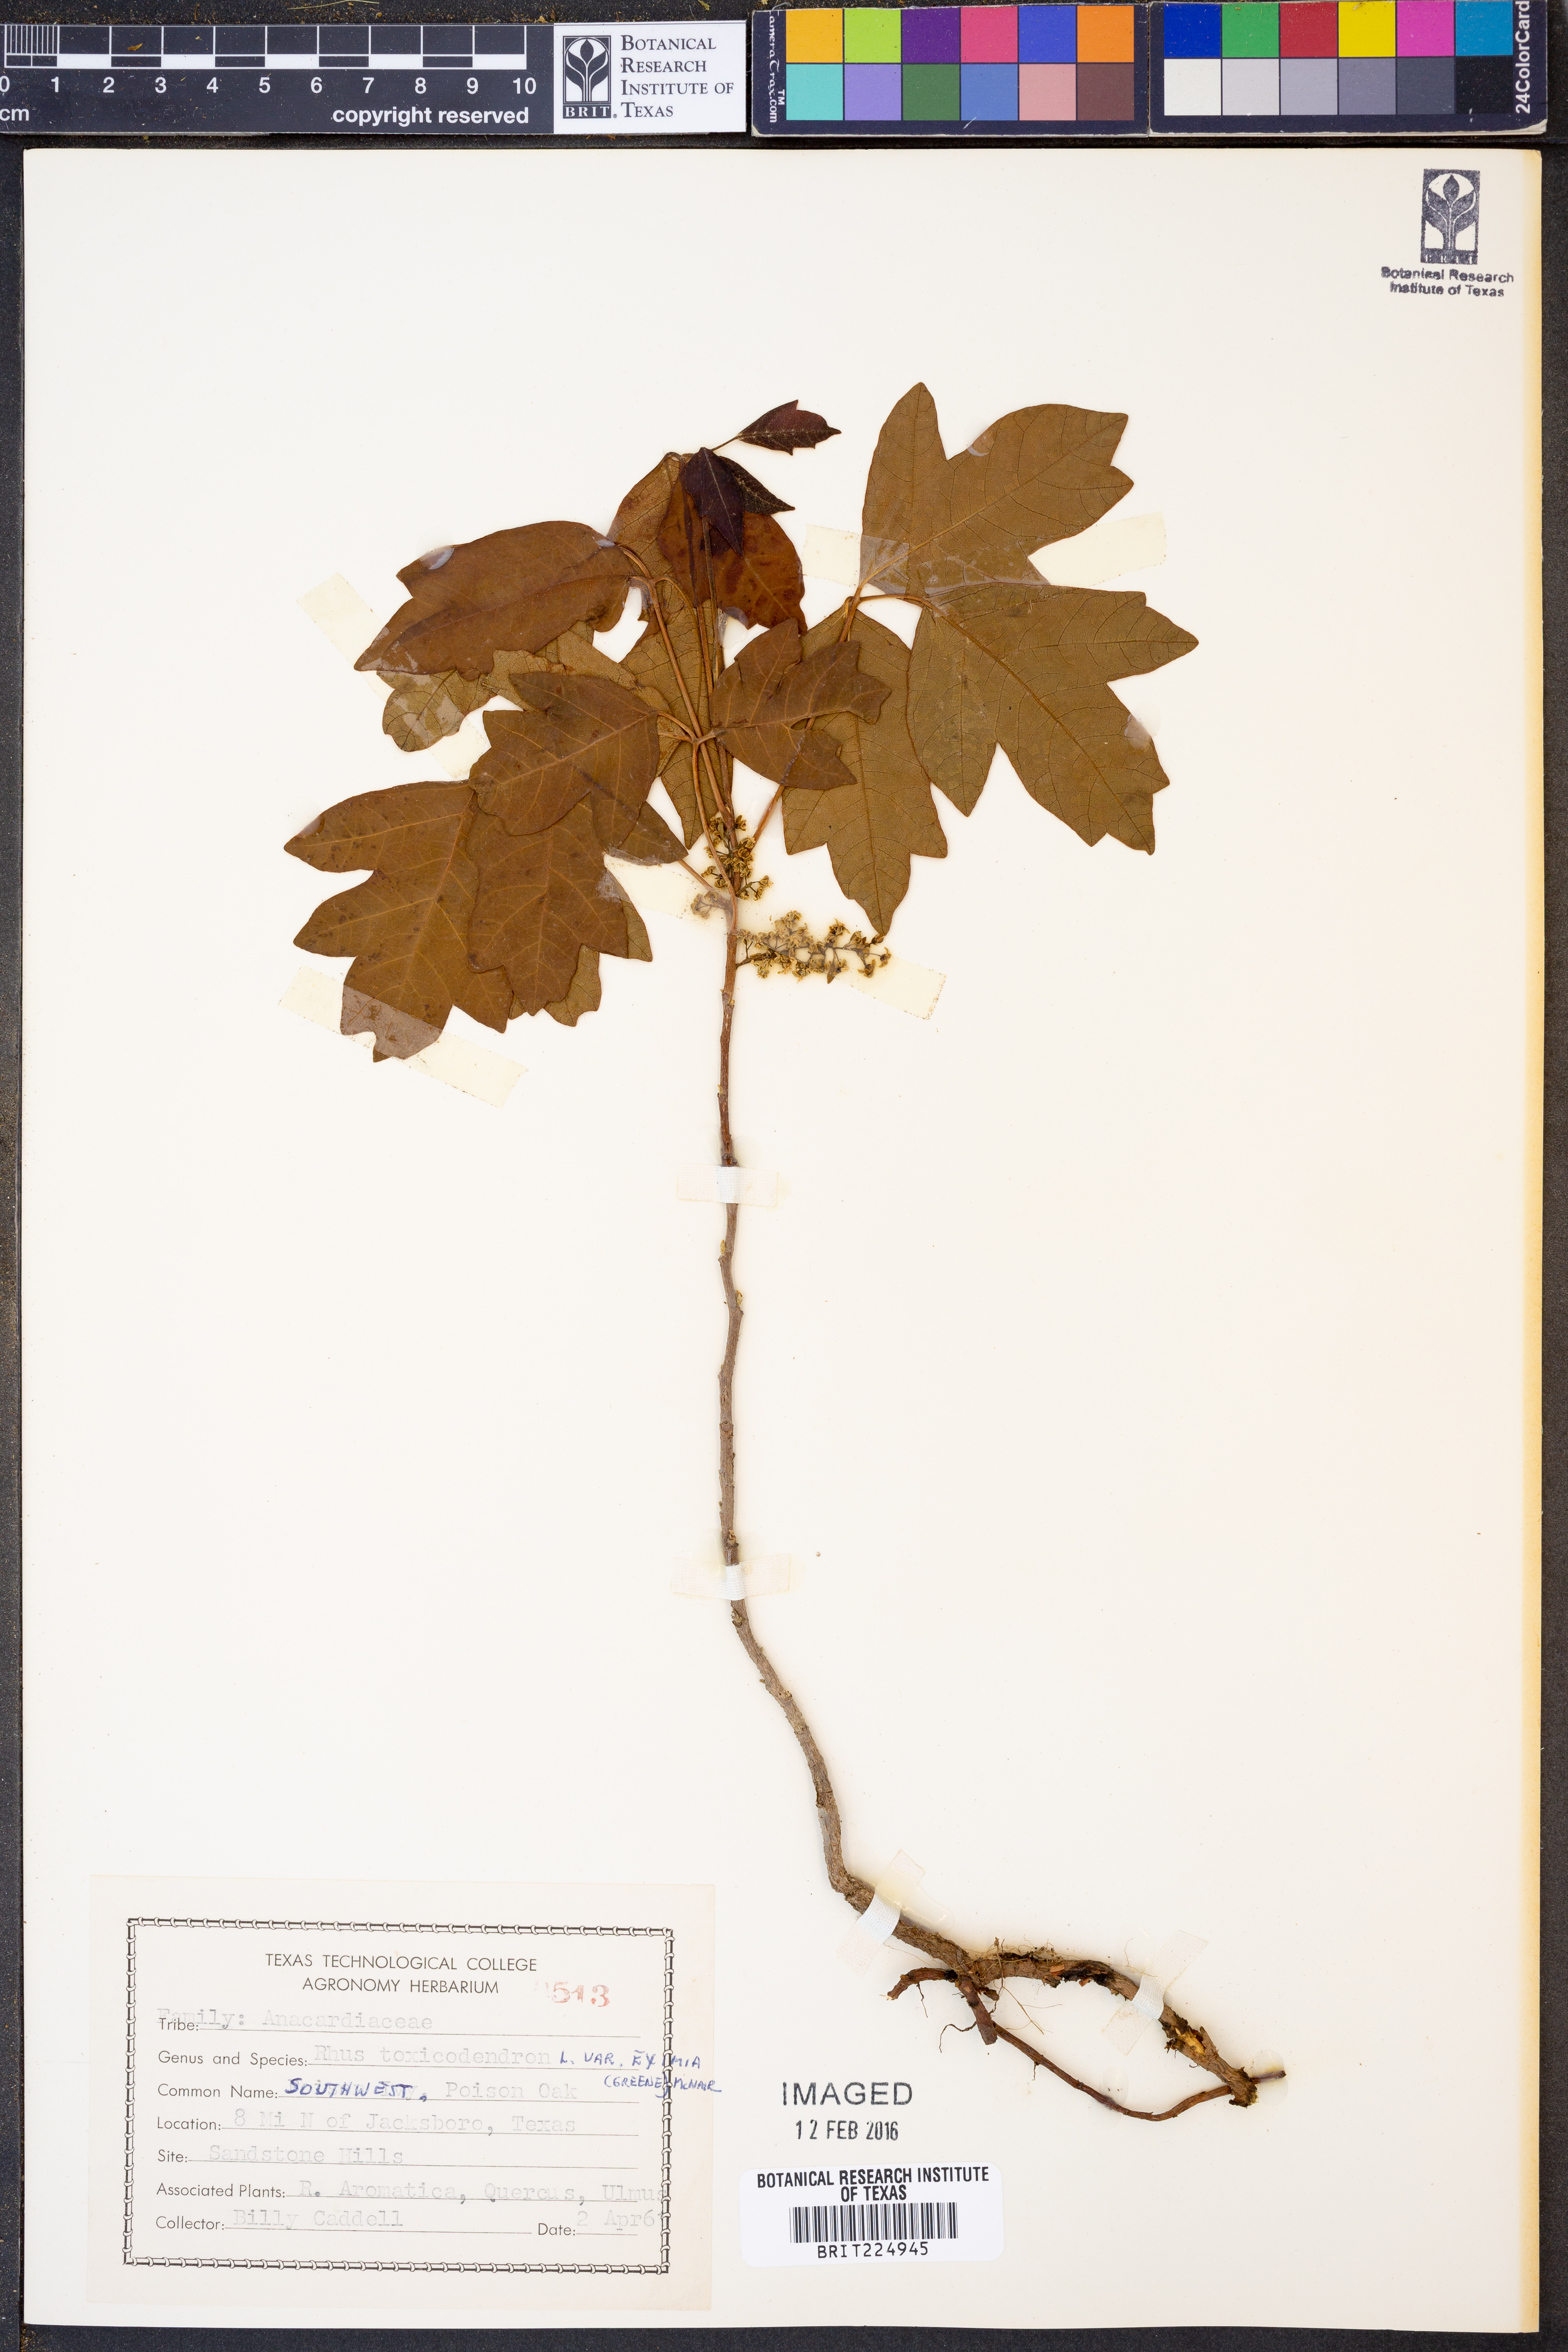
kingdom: Plantae
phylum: Tracheophyta
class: Magnoliopsida
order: Sapindales
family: Anacardiaceae
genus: Toxicodendron
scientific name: Toxicodendron radicans
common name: Poison ivy
